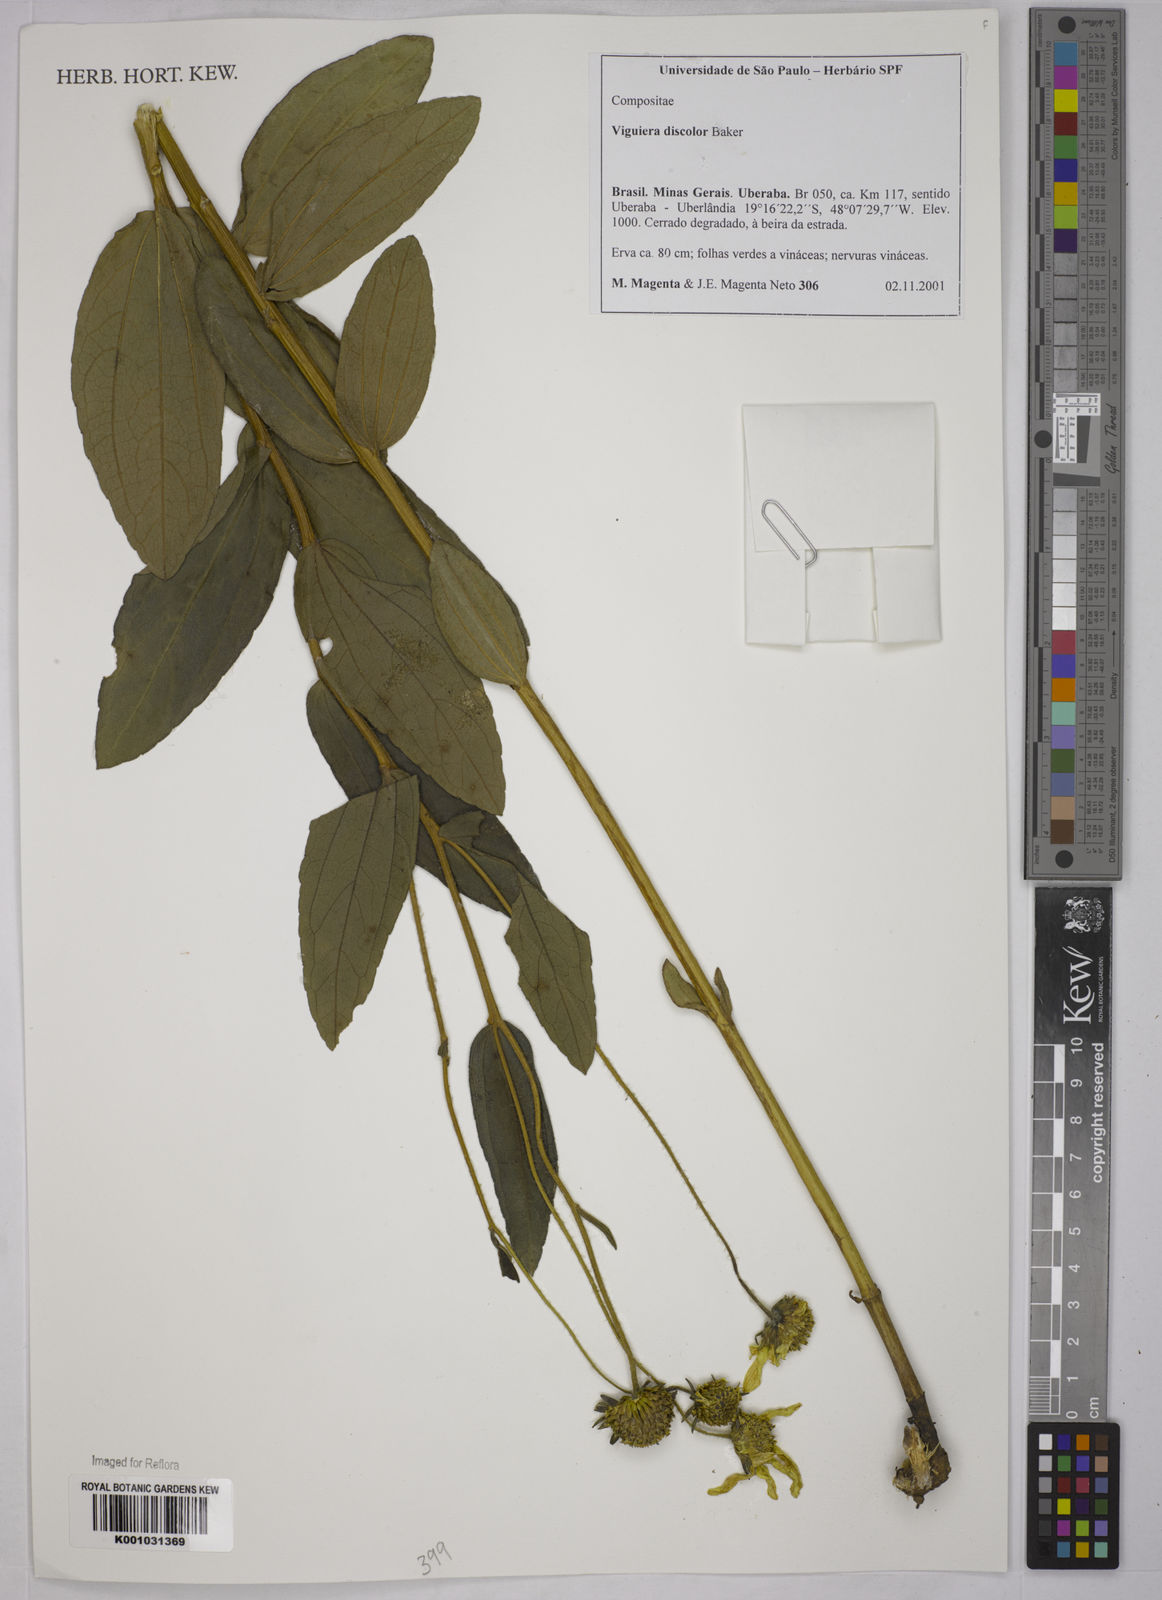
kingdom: Plantae
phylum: Tracheophyta
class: Magnoliopsida
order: Asterales
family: Asteraceae
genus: Aldama
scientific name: Aldama discolor
